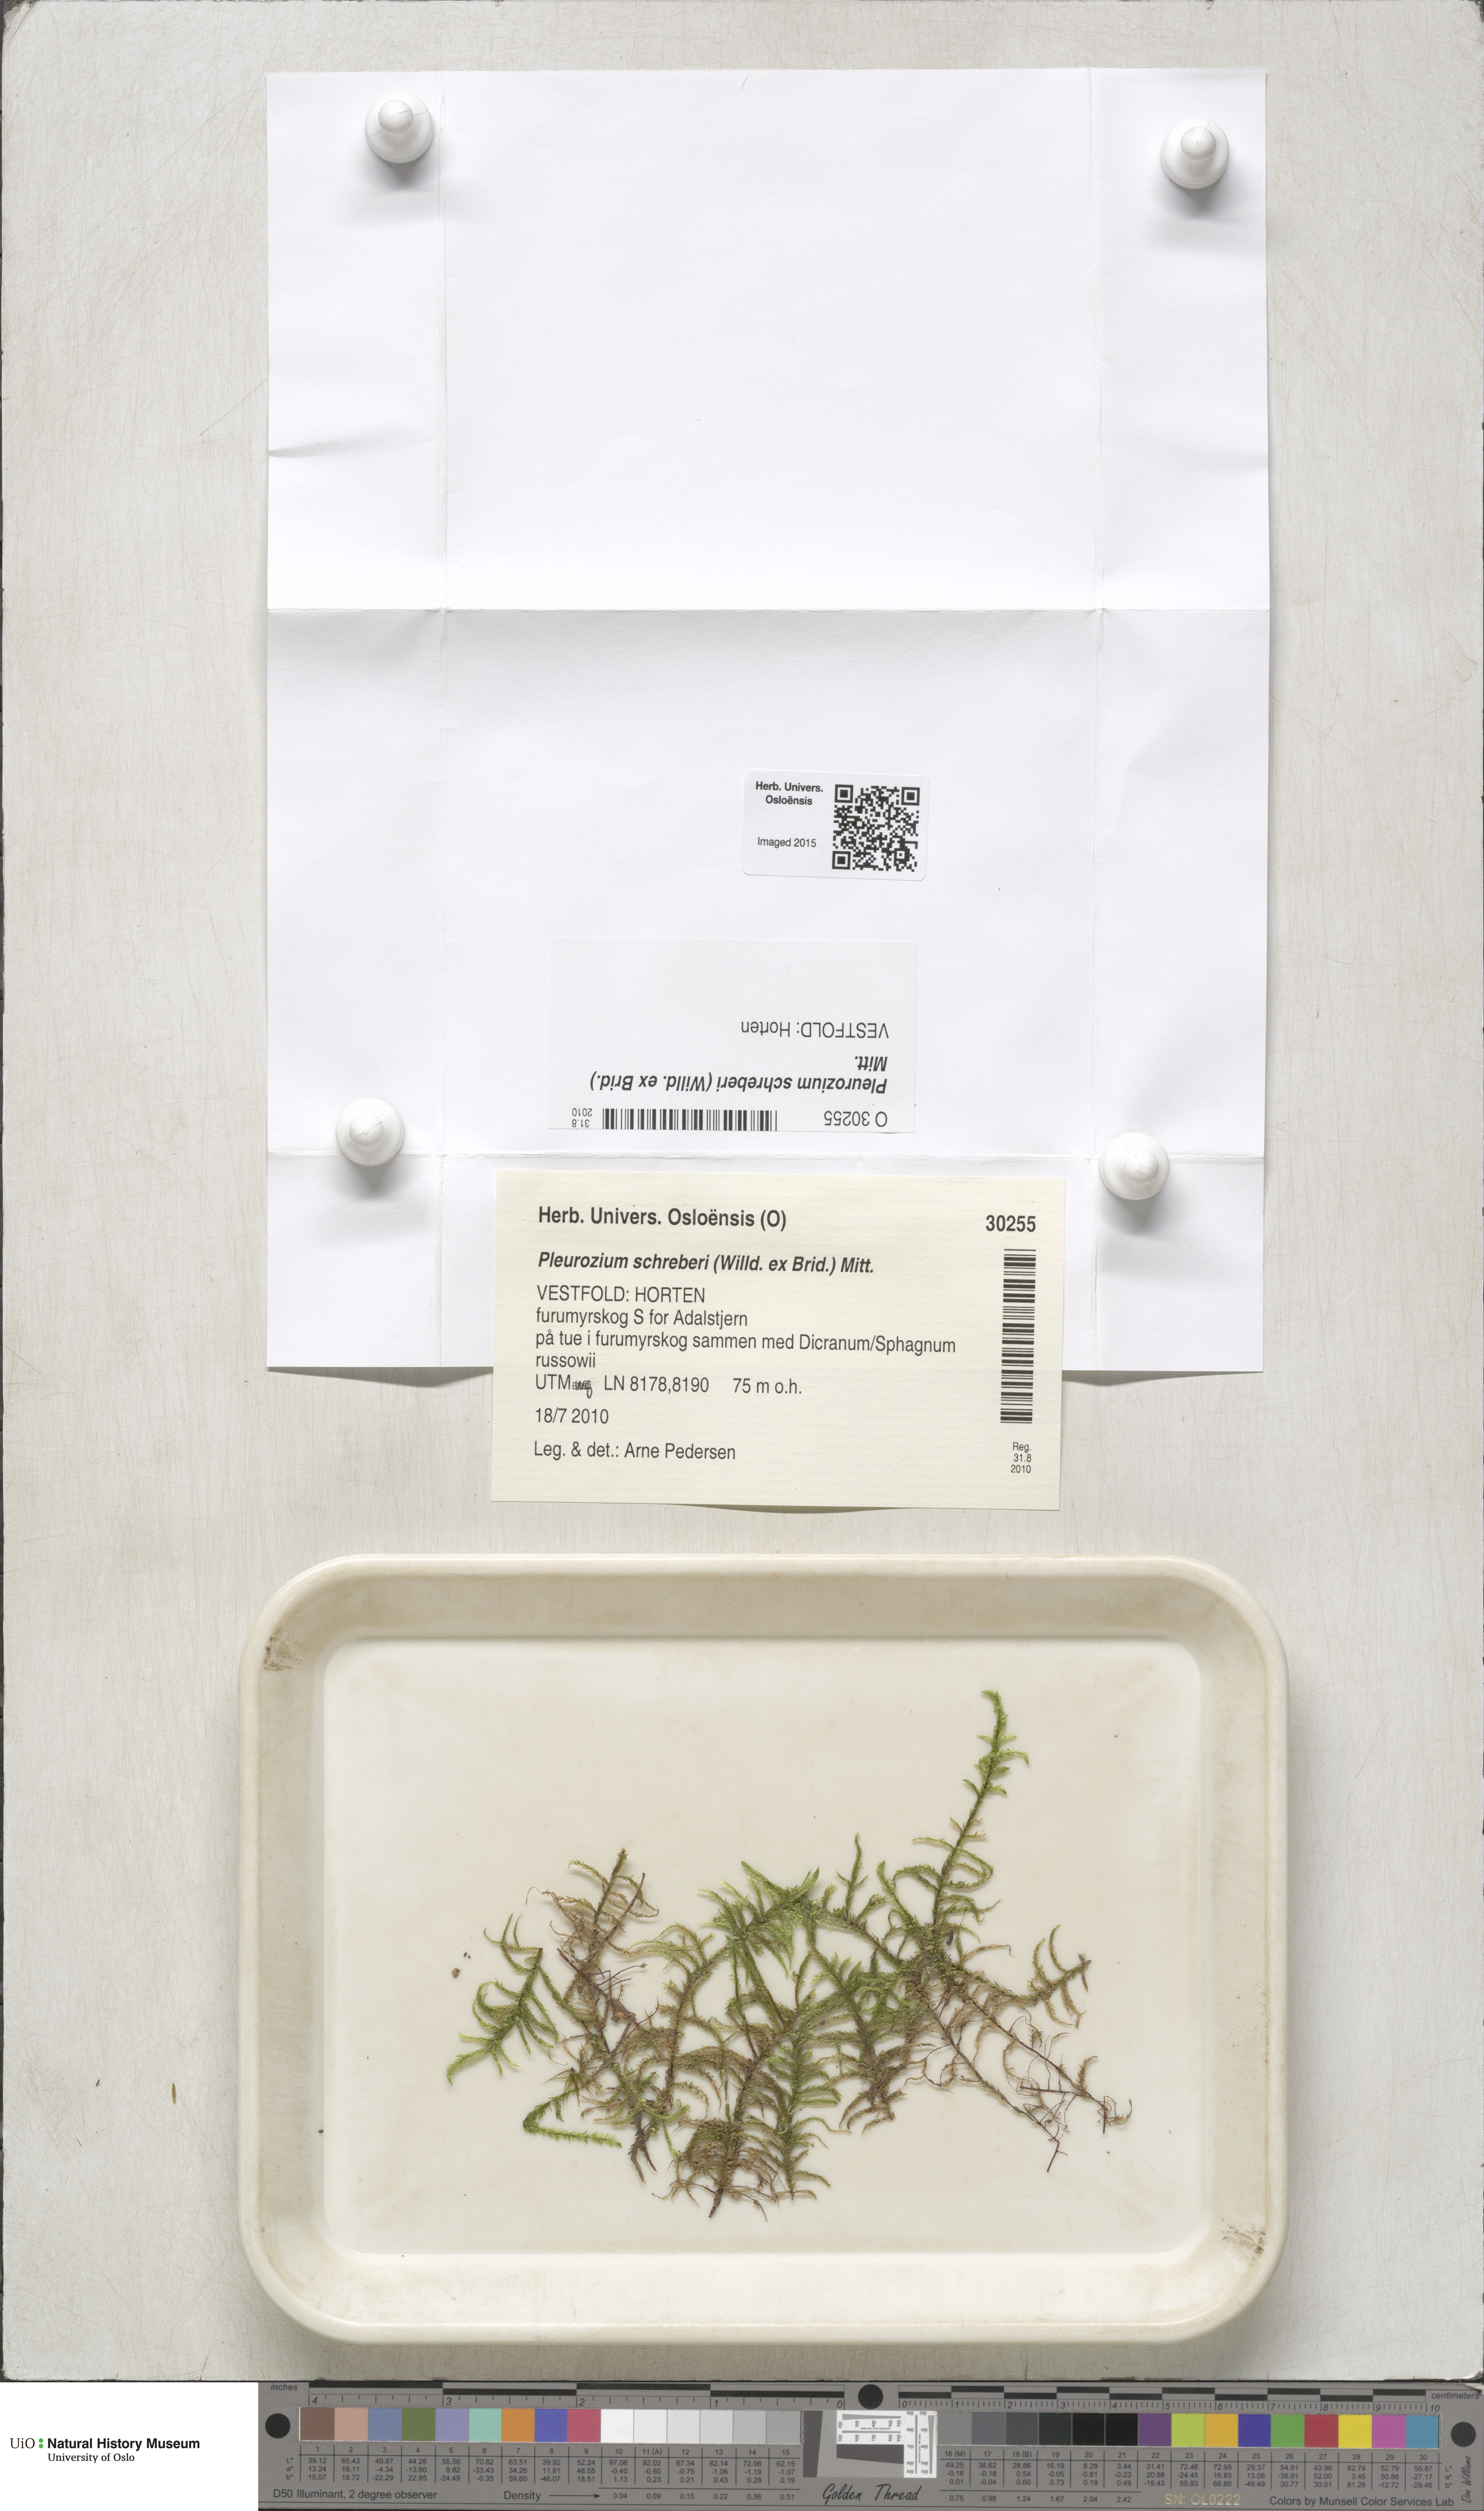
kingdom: Plantae
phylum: Bryophyta
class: Bryopsida
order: Hypnales
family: Hylocomiaceae
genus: Pleurozium
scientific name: Pleurozium schreberi
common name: Red-stemmed feather moss
